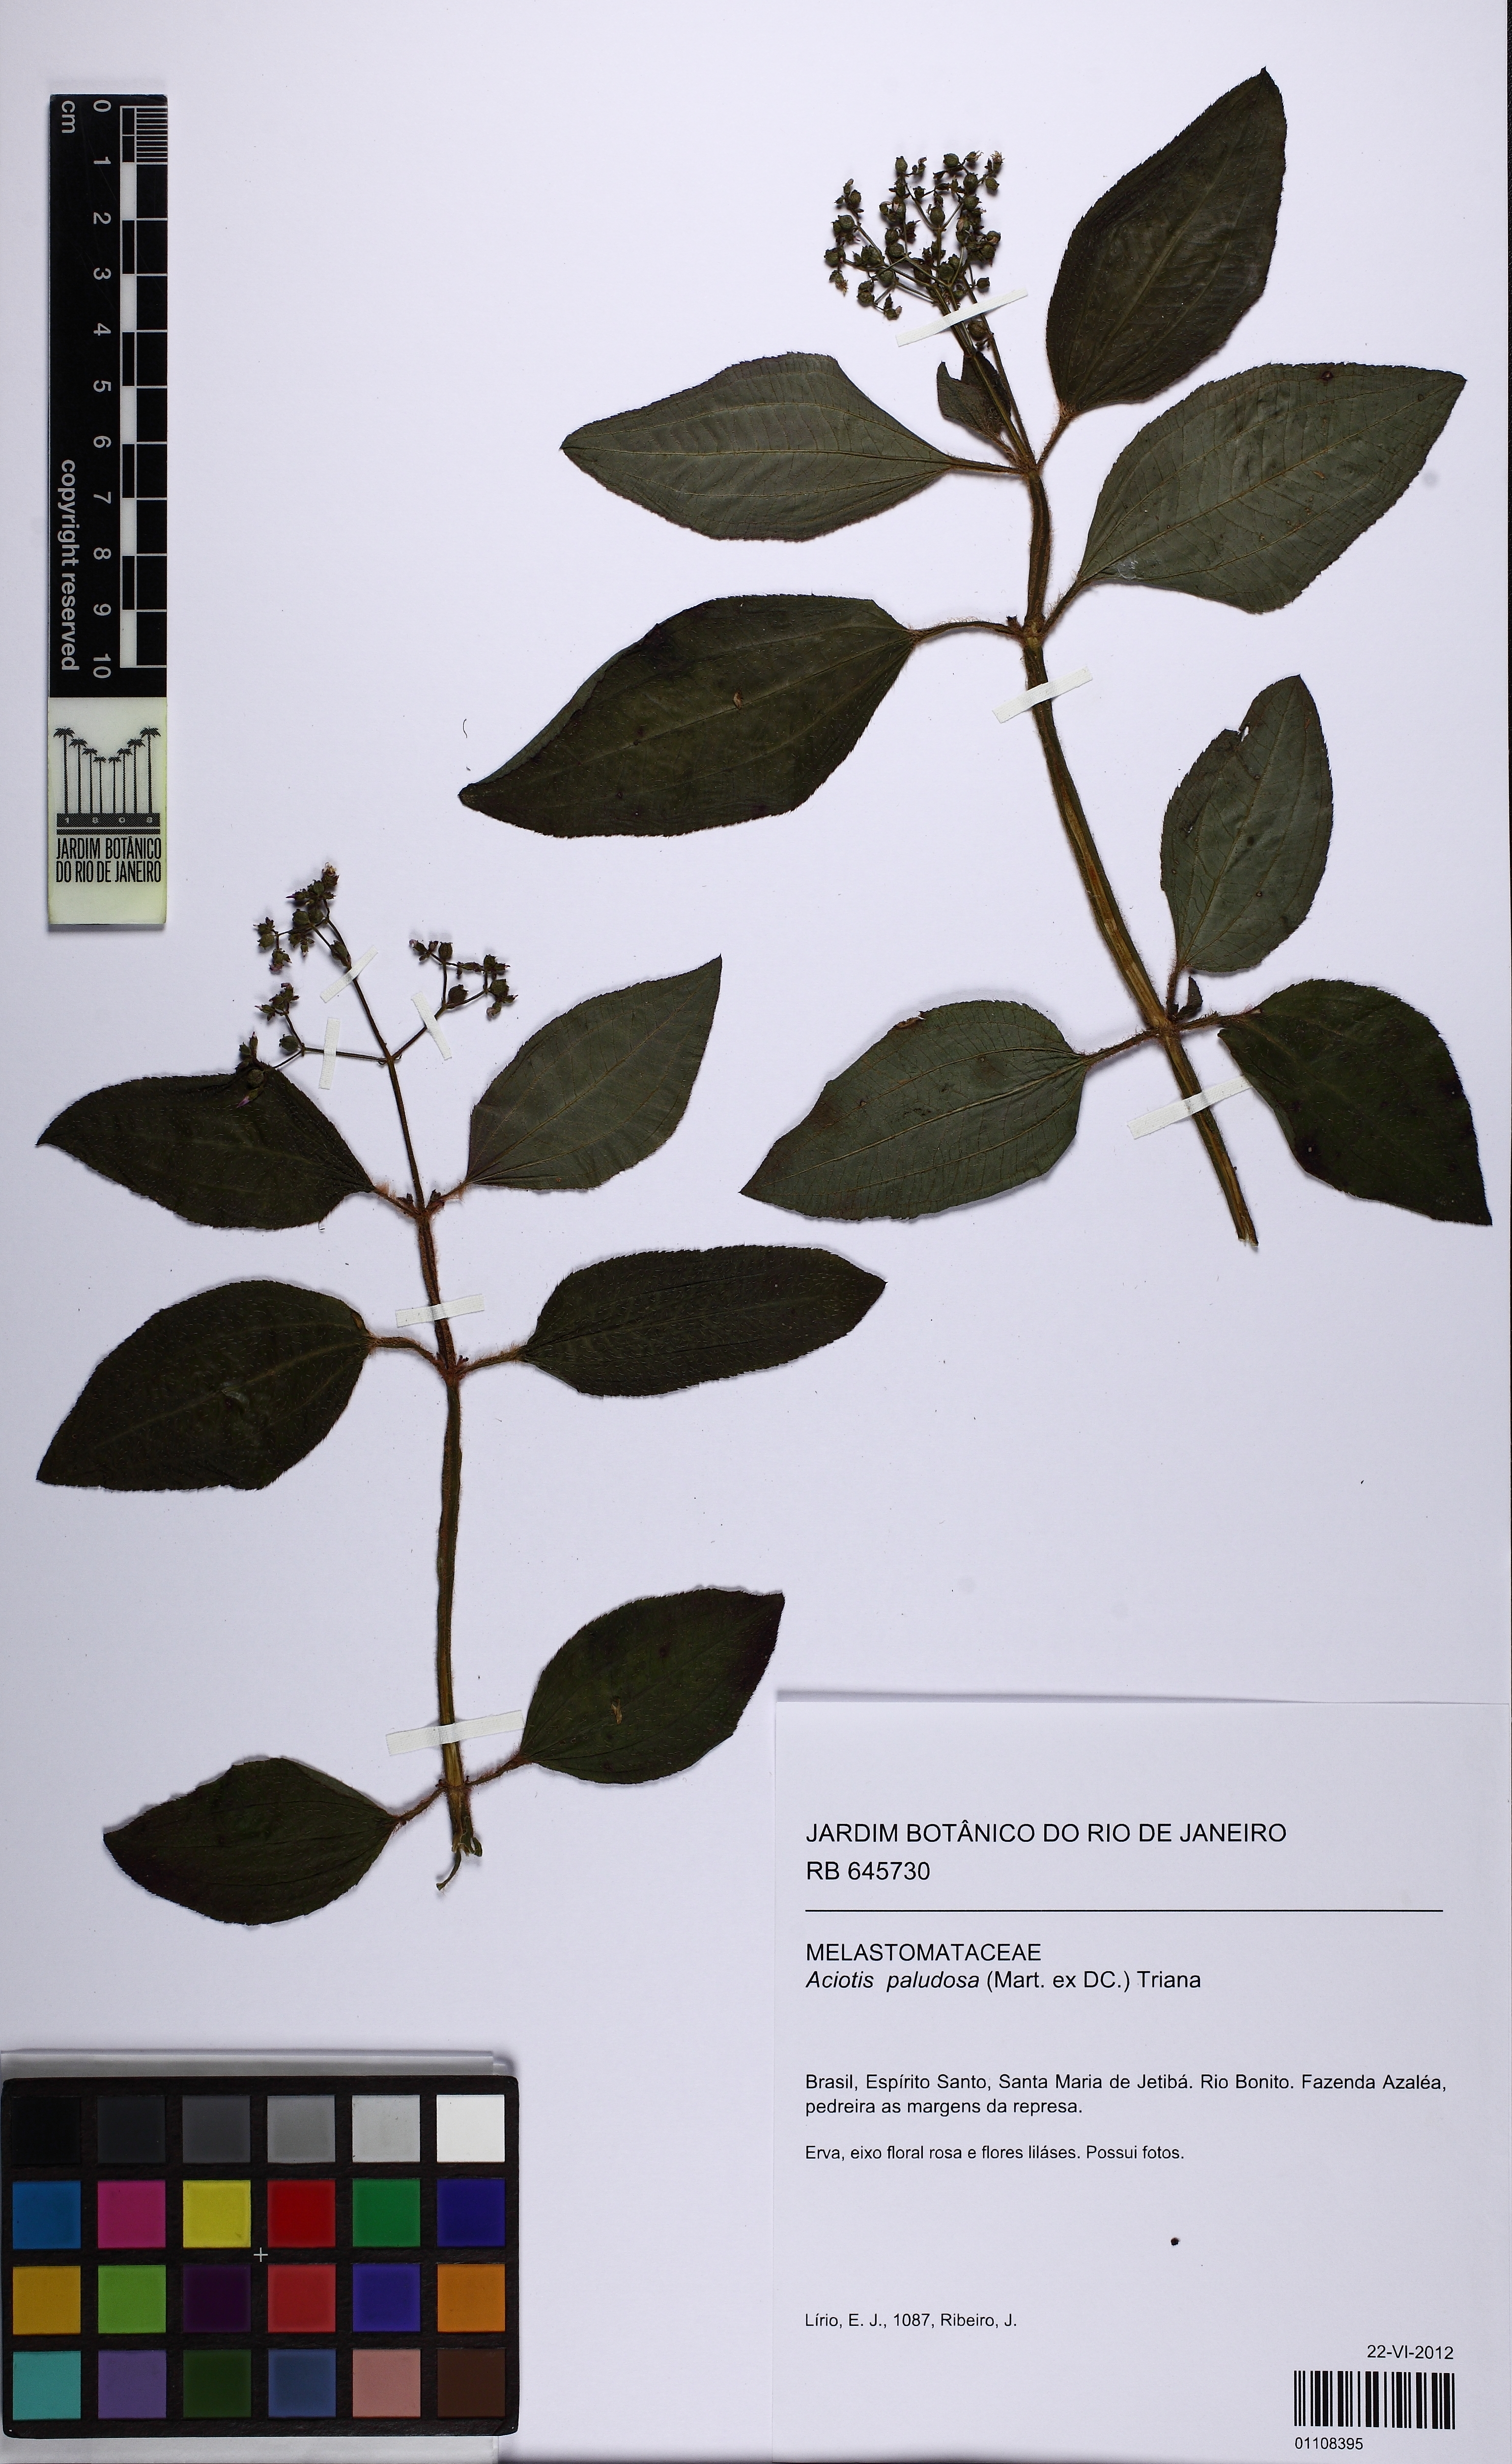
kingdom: Plantae
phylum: Tracheophyta
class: Magnoliopsida
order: Myrtales
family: Melastomataceae
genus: Aciotis
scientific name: Aciotis paludosa
